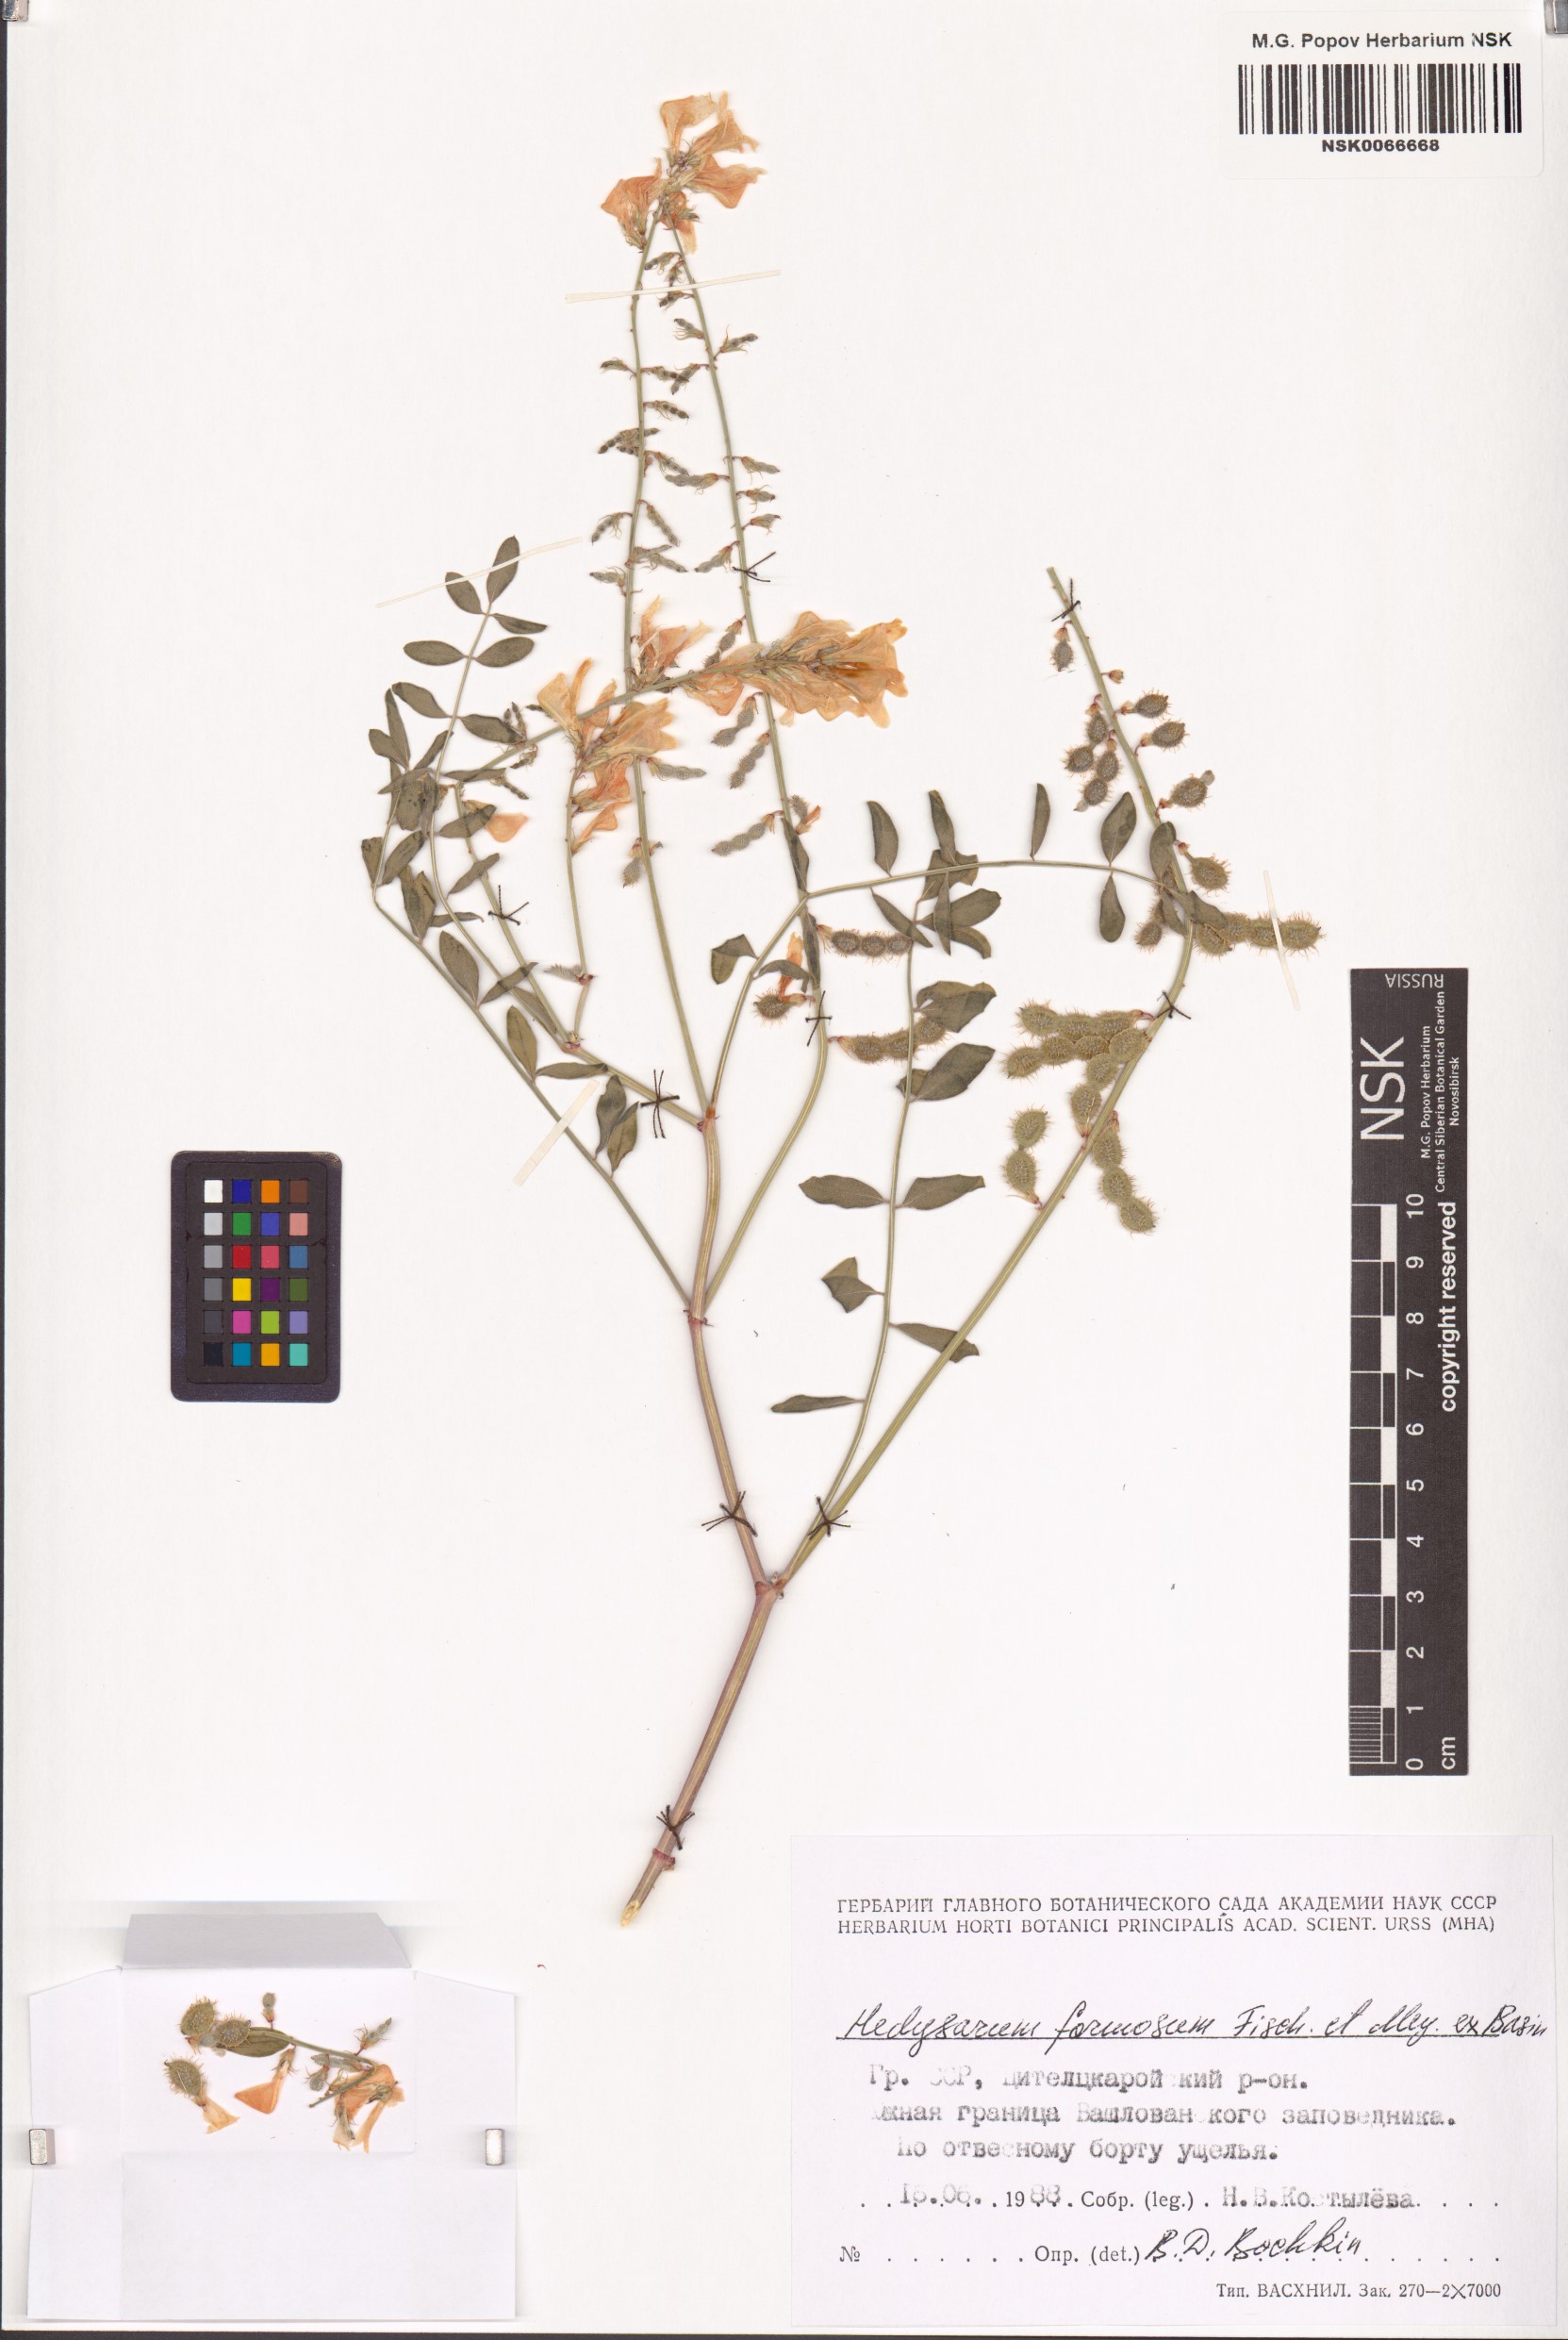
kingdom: Plantae
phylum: Tracheophyta
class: Magnoliopsida
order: Fabales
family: Fabaceae
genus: Hedysarum
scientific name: Hedysarum formosum
